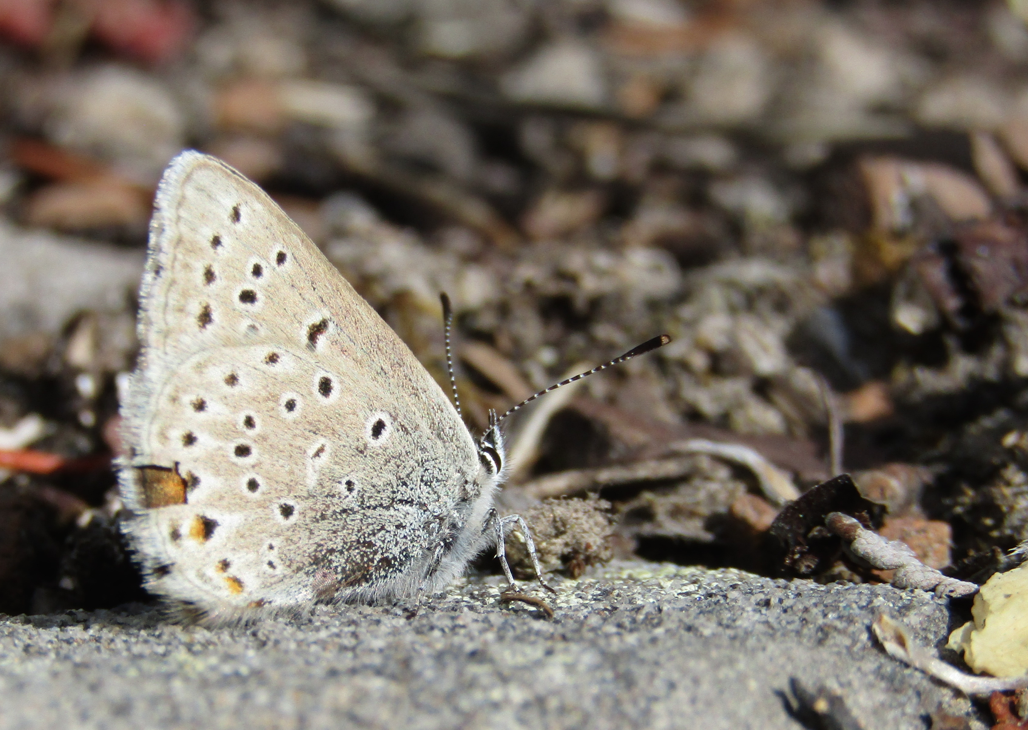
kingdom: Animalia
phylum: Arthropoda
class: Insecta
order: Lepidoptera
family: Lycaenidae
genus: Plebejus
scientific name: Plebejus saepiolus
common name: Greenish Blue
